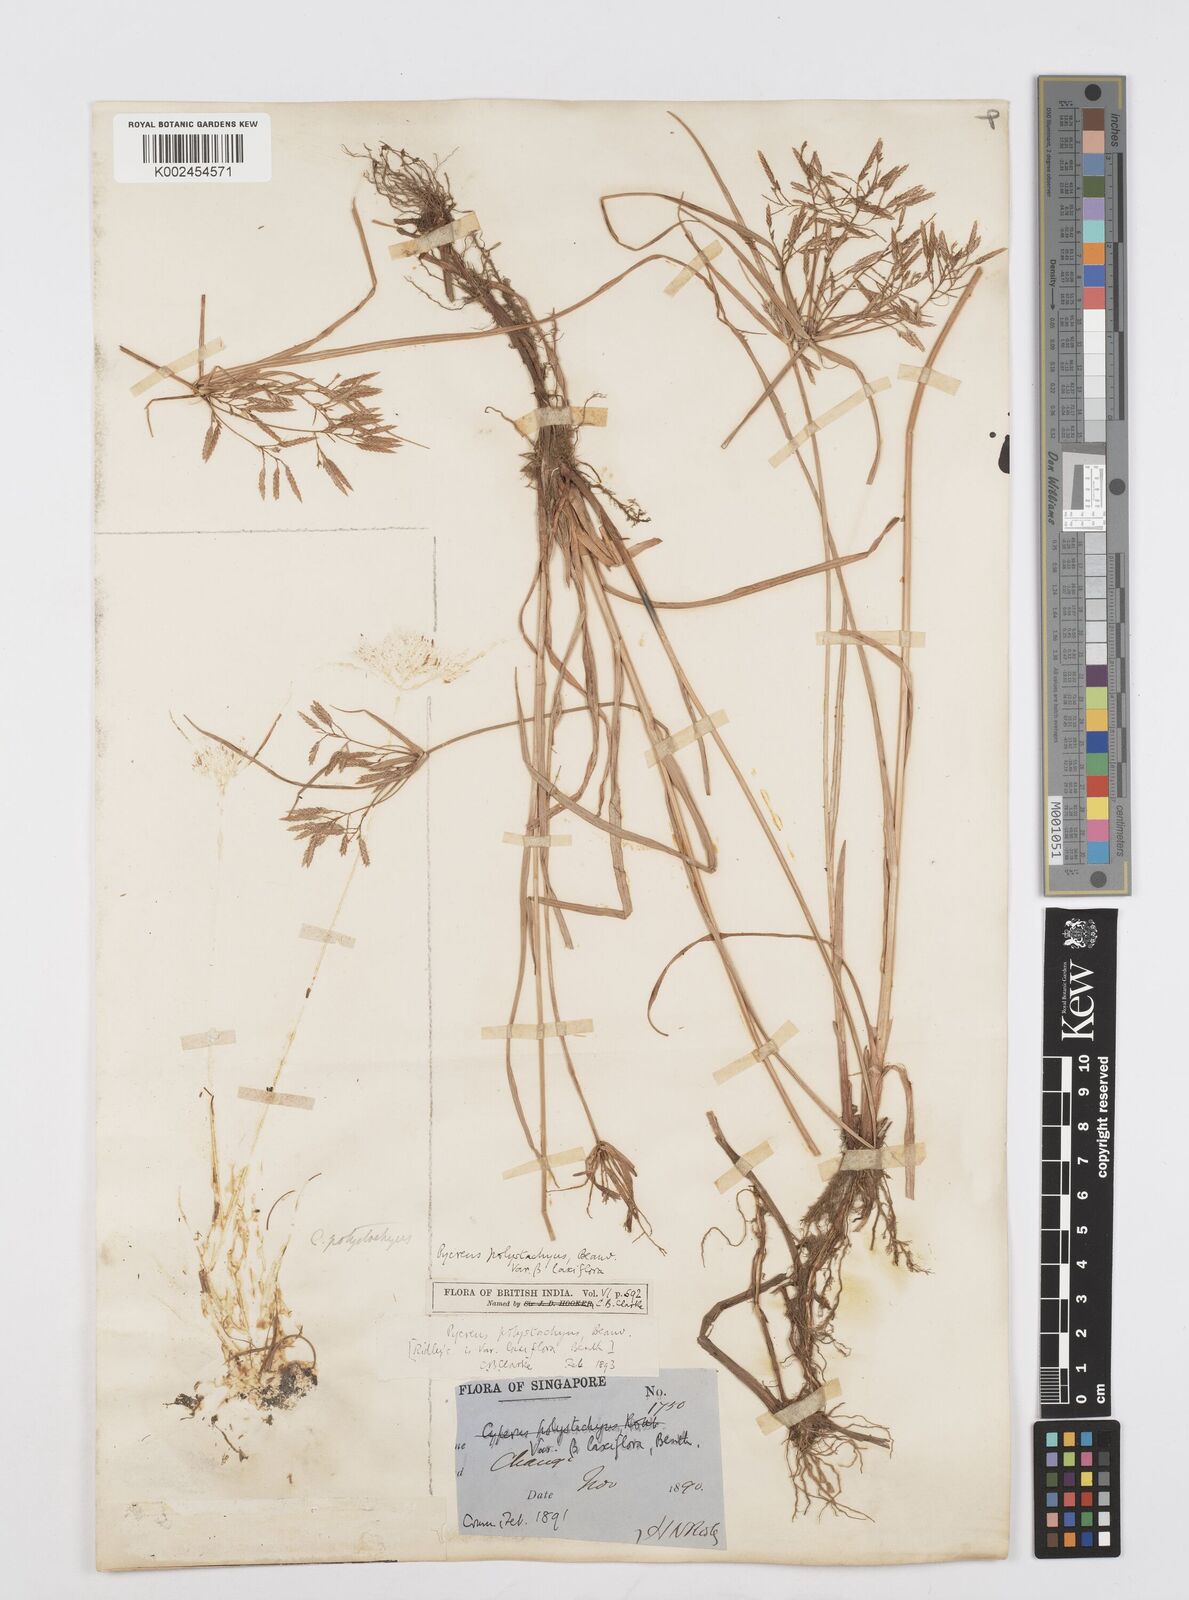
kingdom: Plantae
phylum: Tracheophyta
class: Liliopsida
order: Poales
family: Cyperaceae
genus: Cyperus
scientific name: Cyperus polystachyos
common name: Bunchy flat sedge
